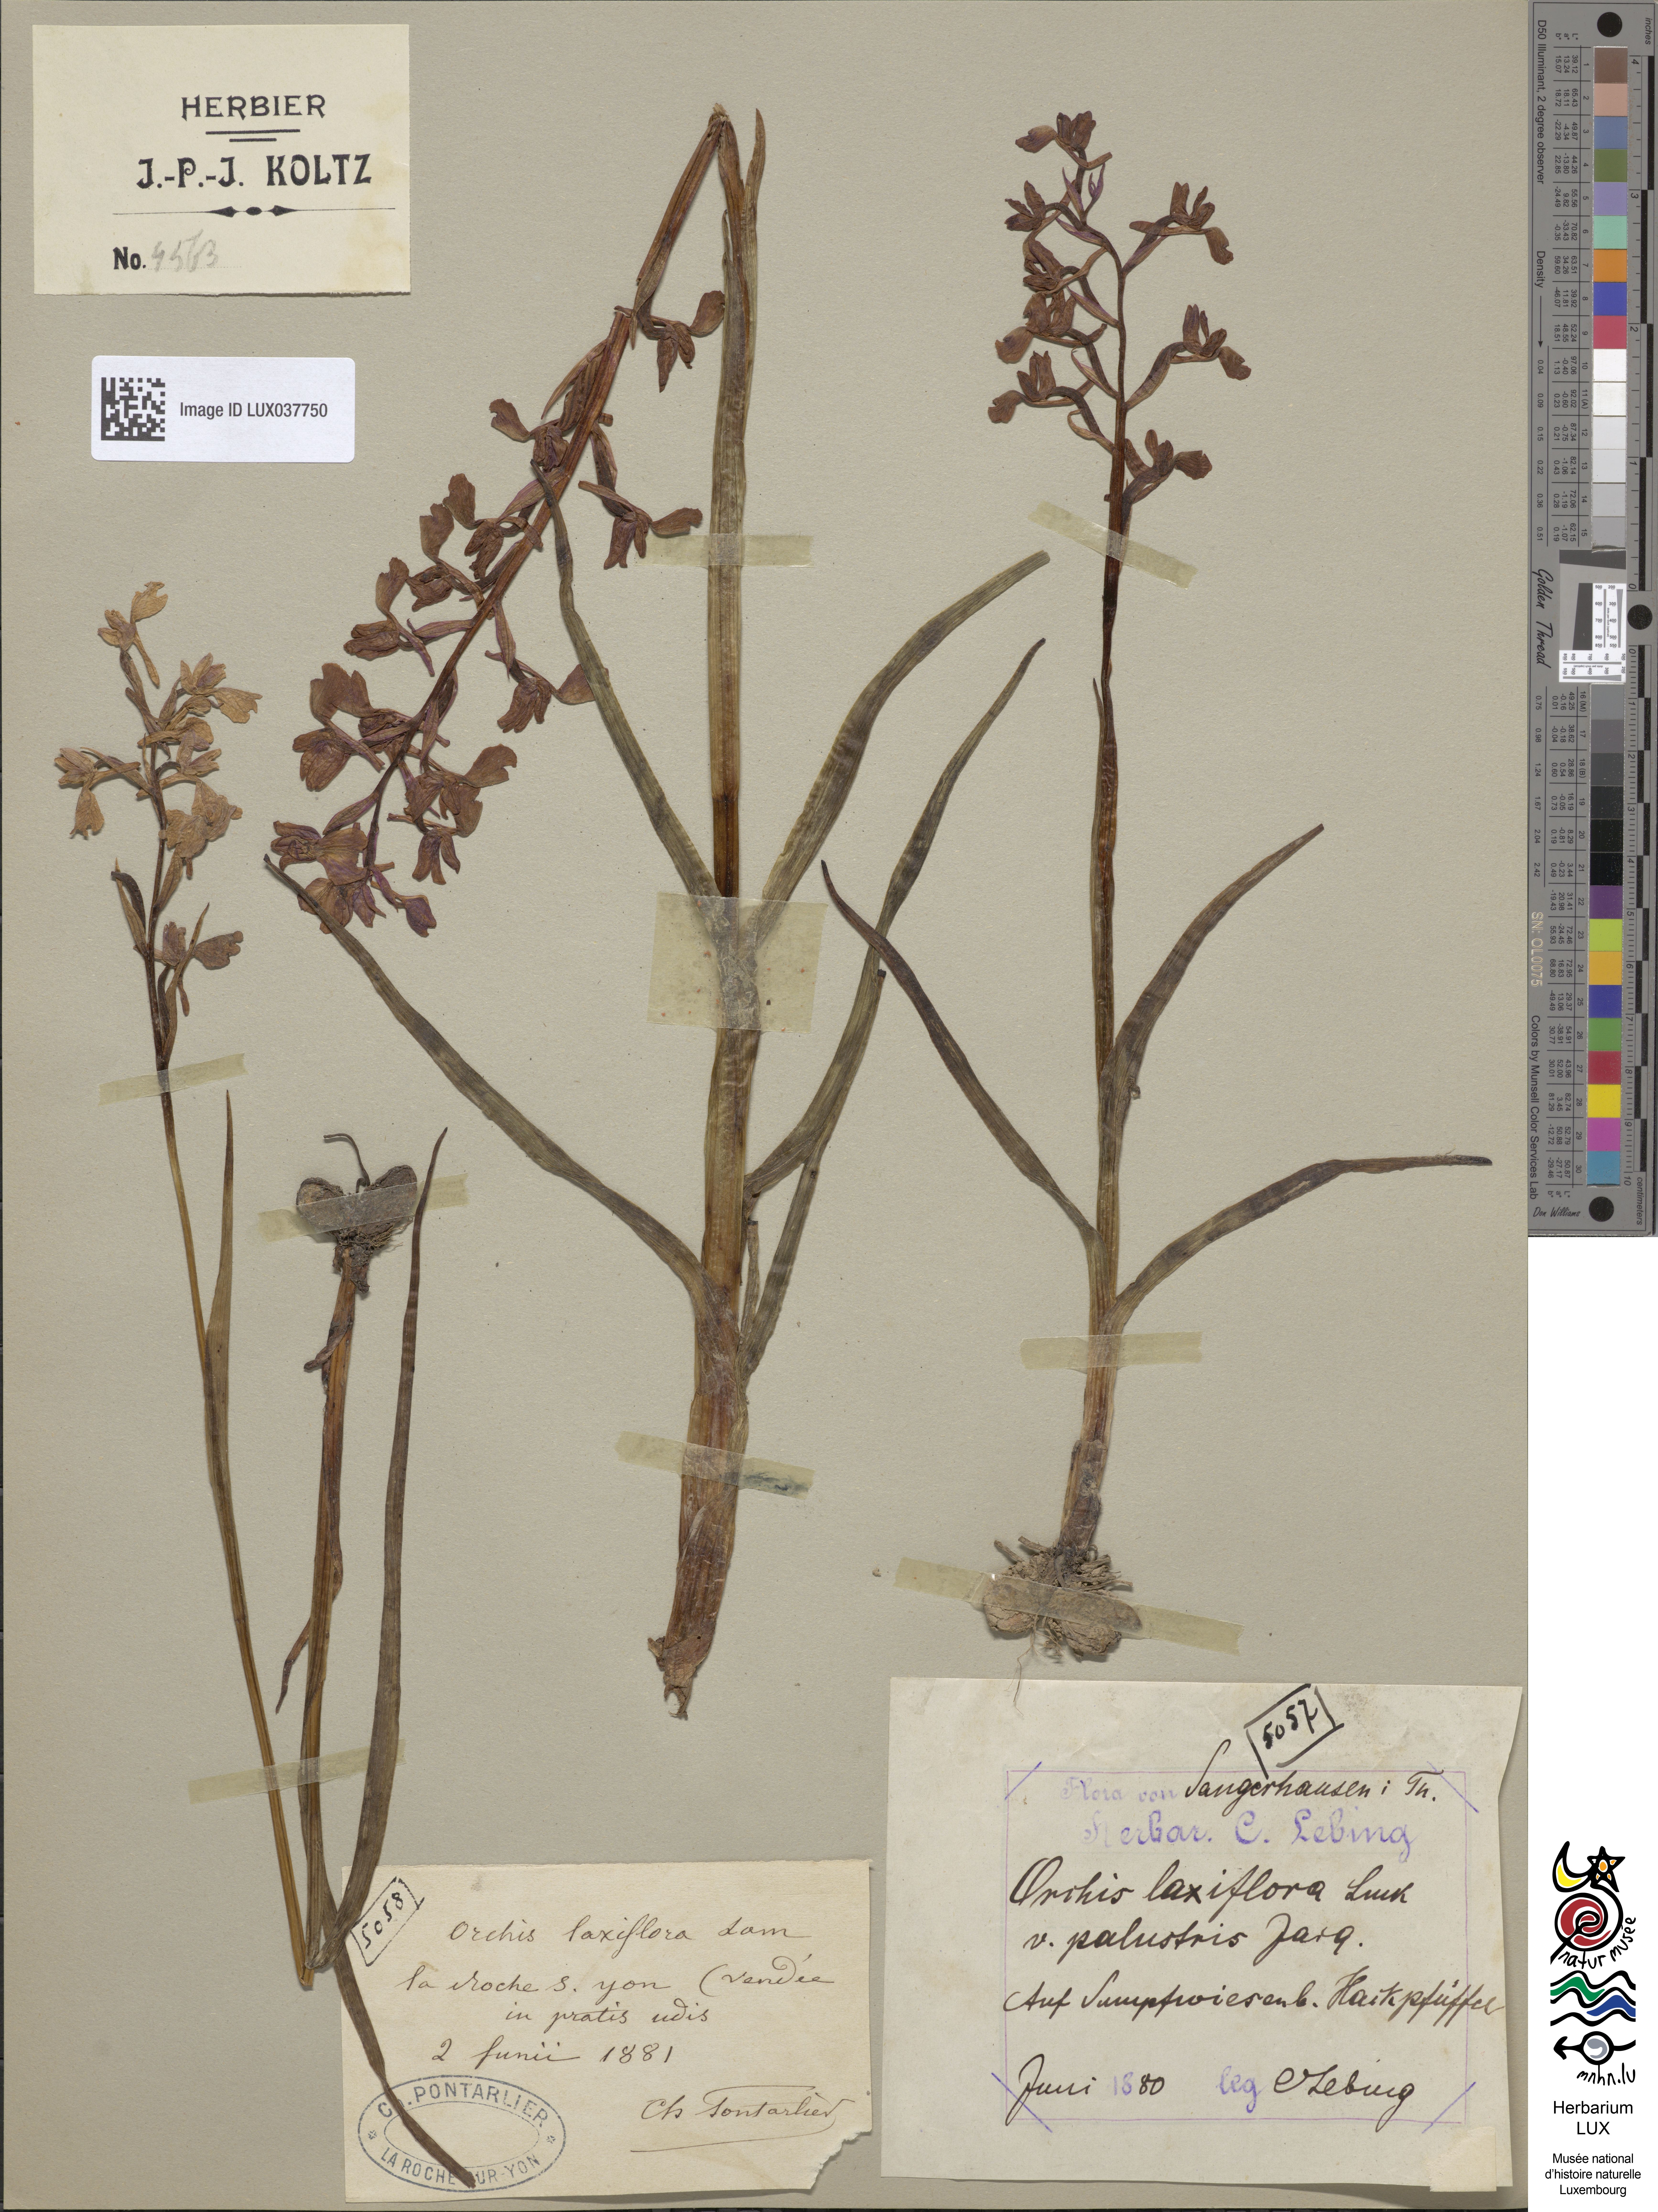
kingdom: Plantae
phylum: Tracheophyta
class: Liliopsida
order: Asparagales
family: Orchidaceae
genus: Anacamptis
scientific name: Anacamptis laxiflora
